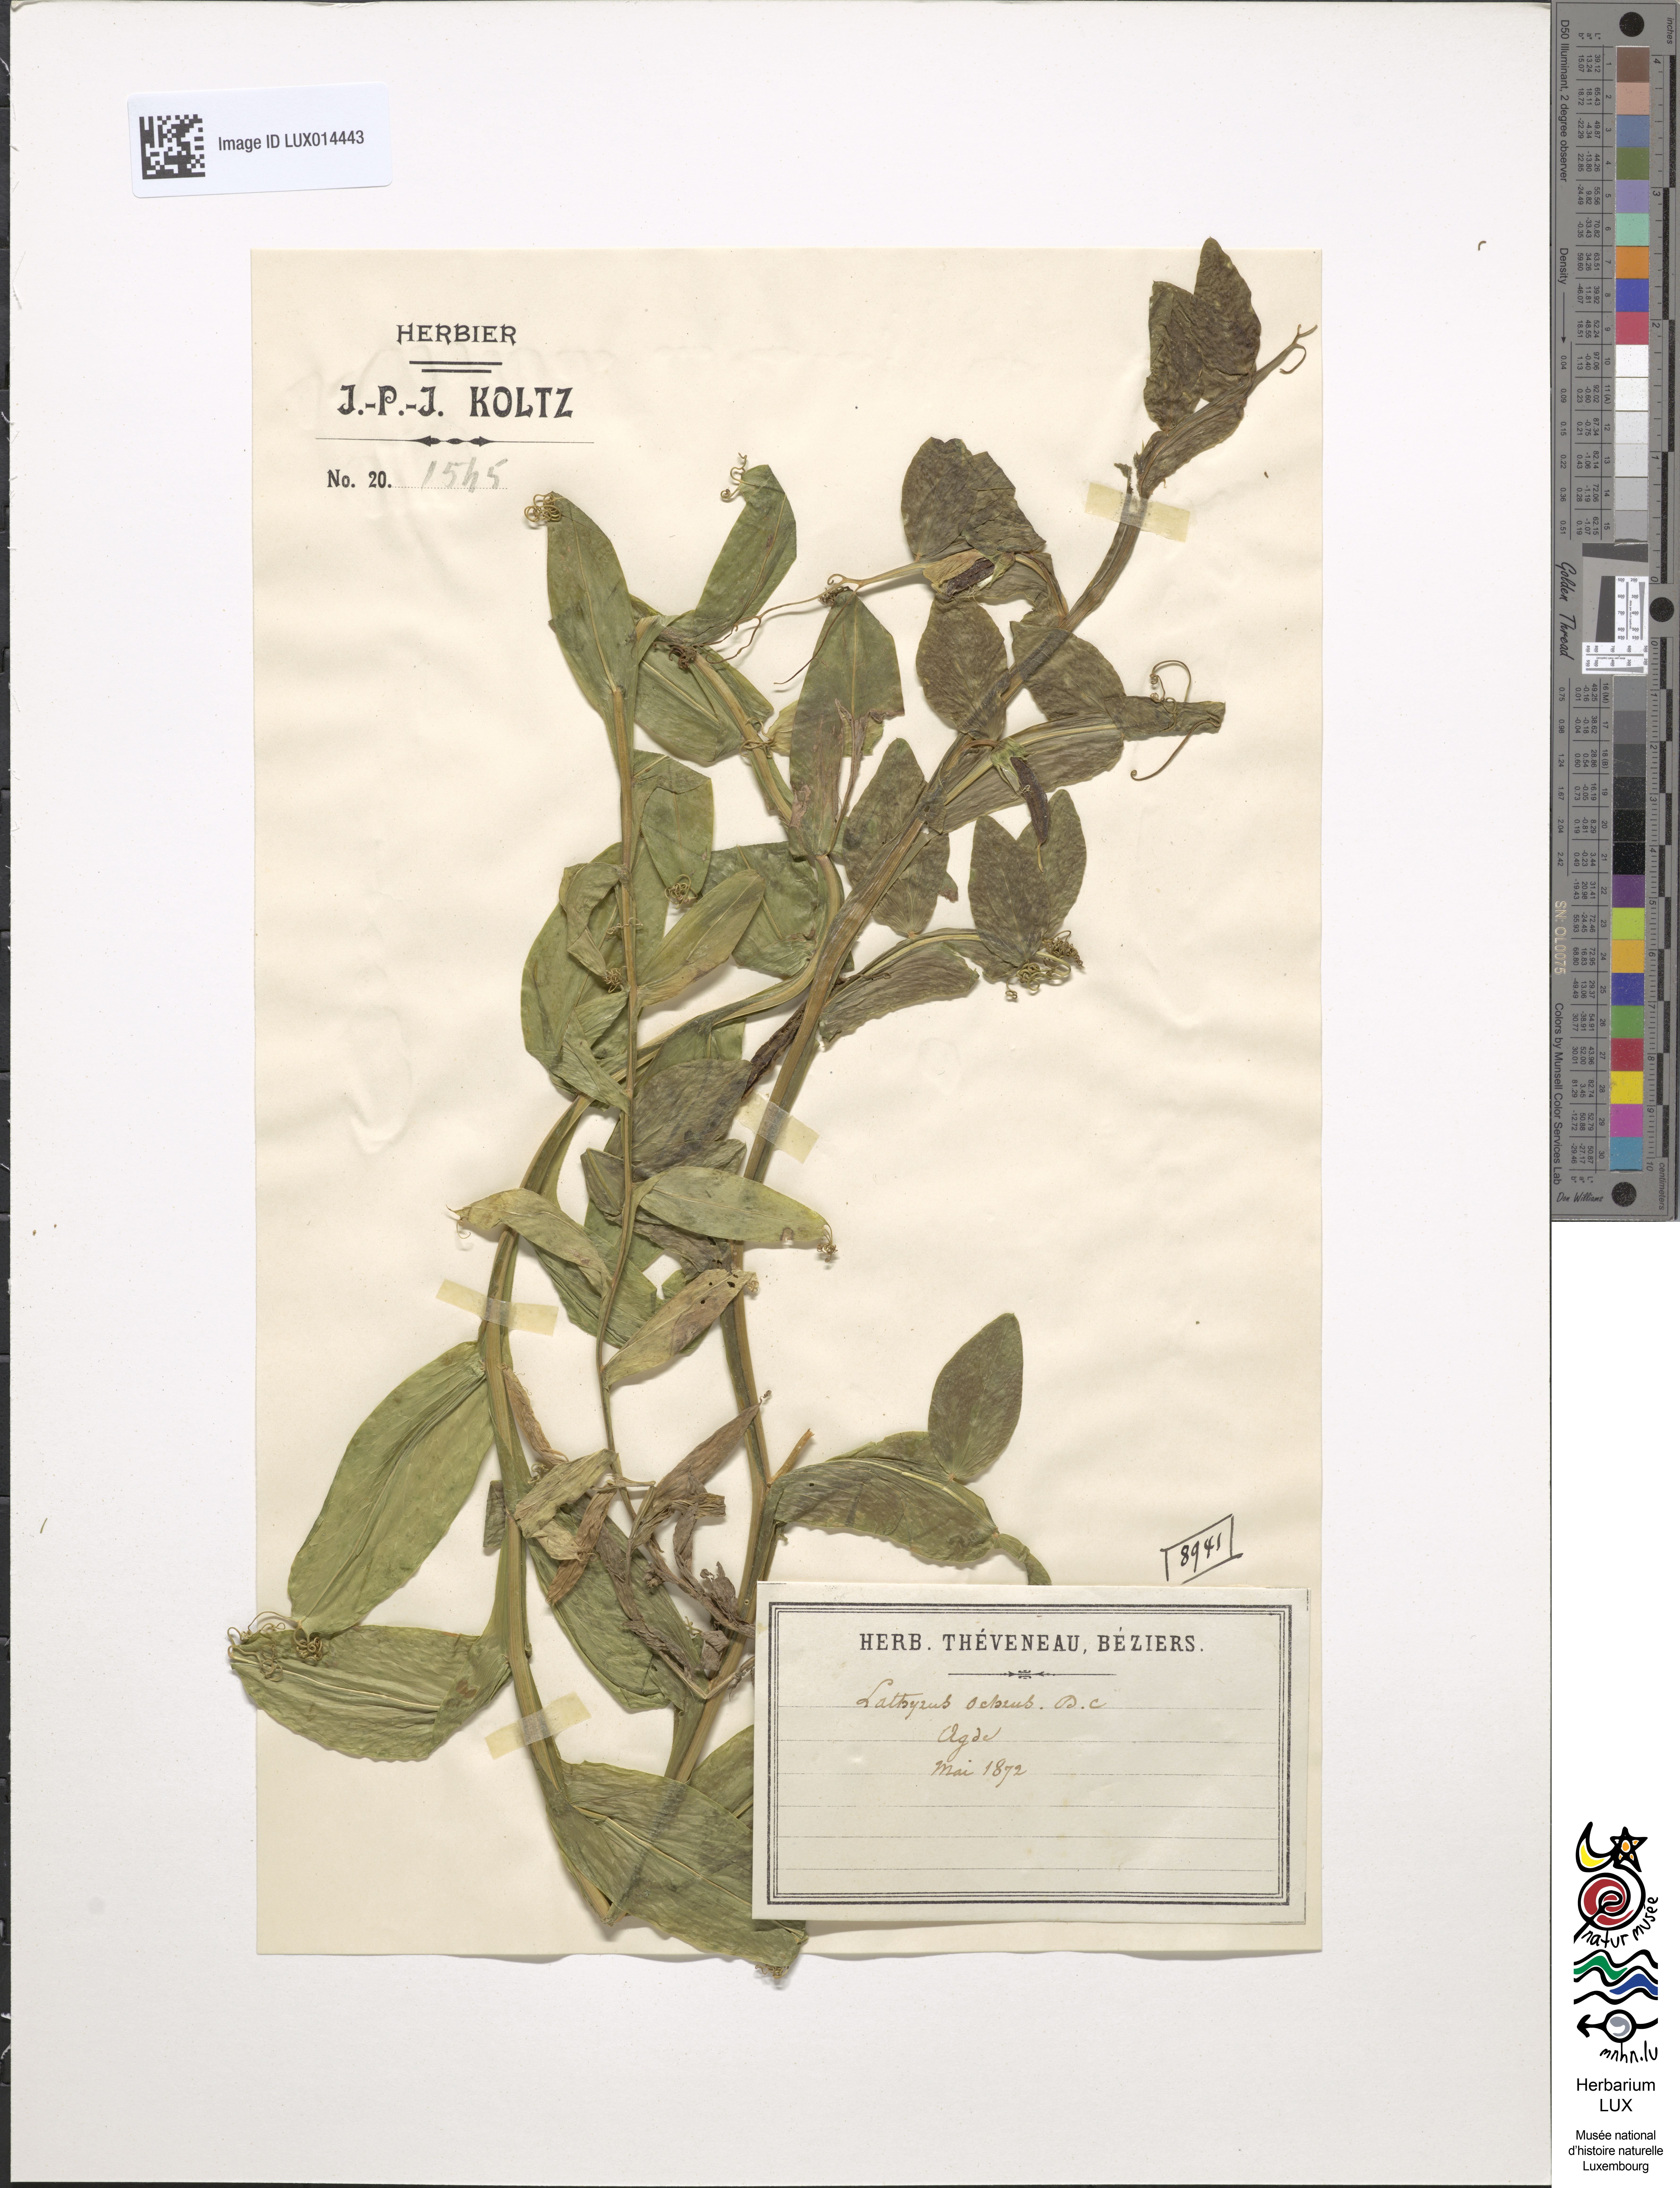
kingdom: Plantae
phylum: Tracheophyta
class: Magnoliopsida
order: Fabales
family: Fabaceae
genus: Lathyrus
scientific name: Lathyrus ochrus
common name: Winged vetchling
